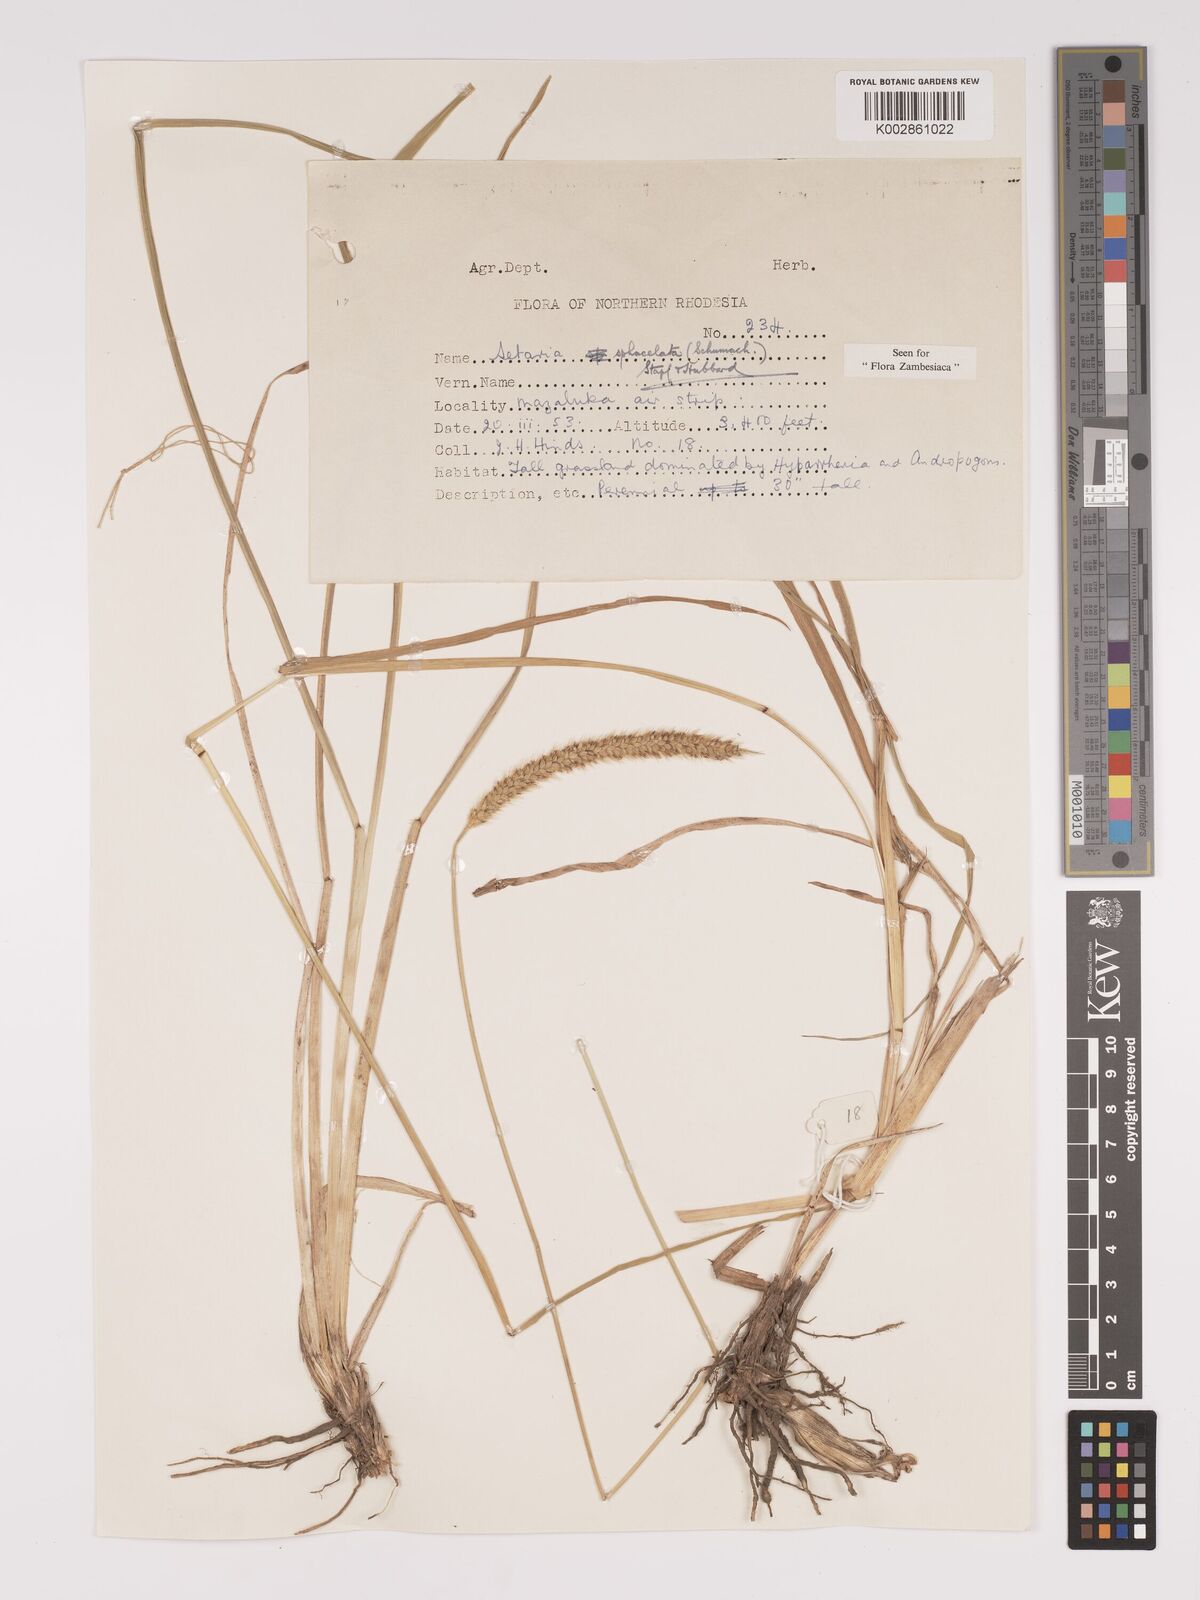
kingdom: Plantae
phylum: Tracheophyta
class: Liliopsida
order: Poales
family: Poaceae
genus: Setaria
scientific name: Setaria sphacelata
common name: African bristlegrass
